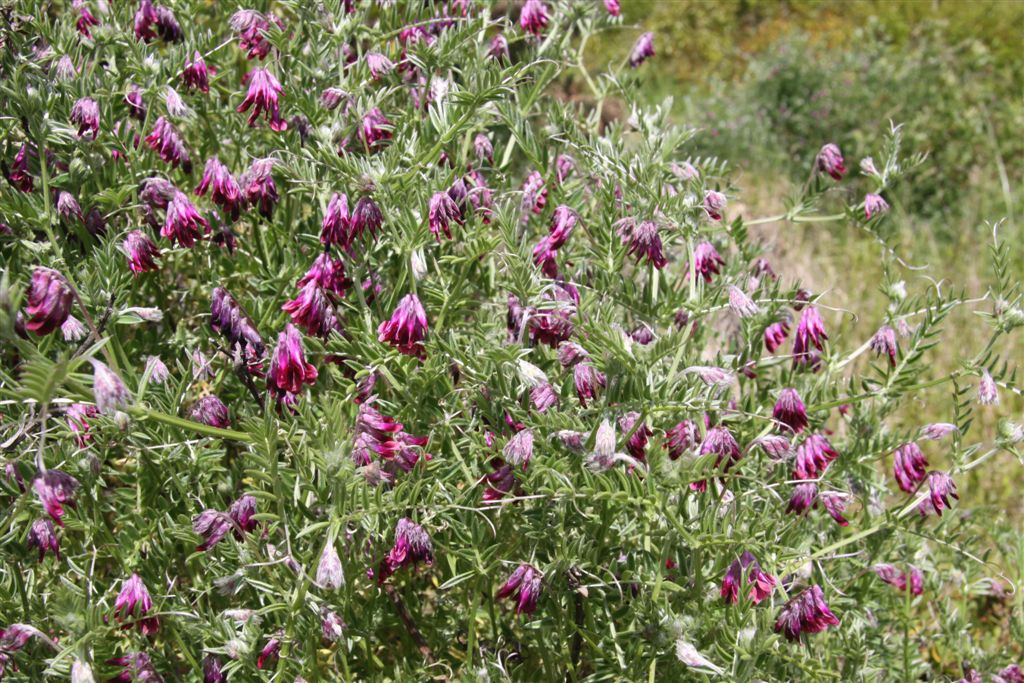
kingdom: Plantae
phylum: Tracheophyta
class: Magnoliopsida
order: Fabales
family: Fabaceae
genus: Vicia
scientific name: Vicia benghalensis
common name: Purple vetch
